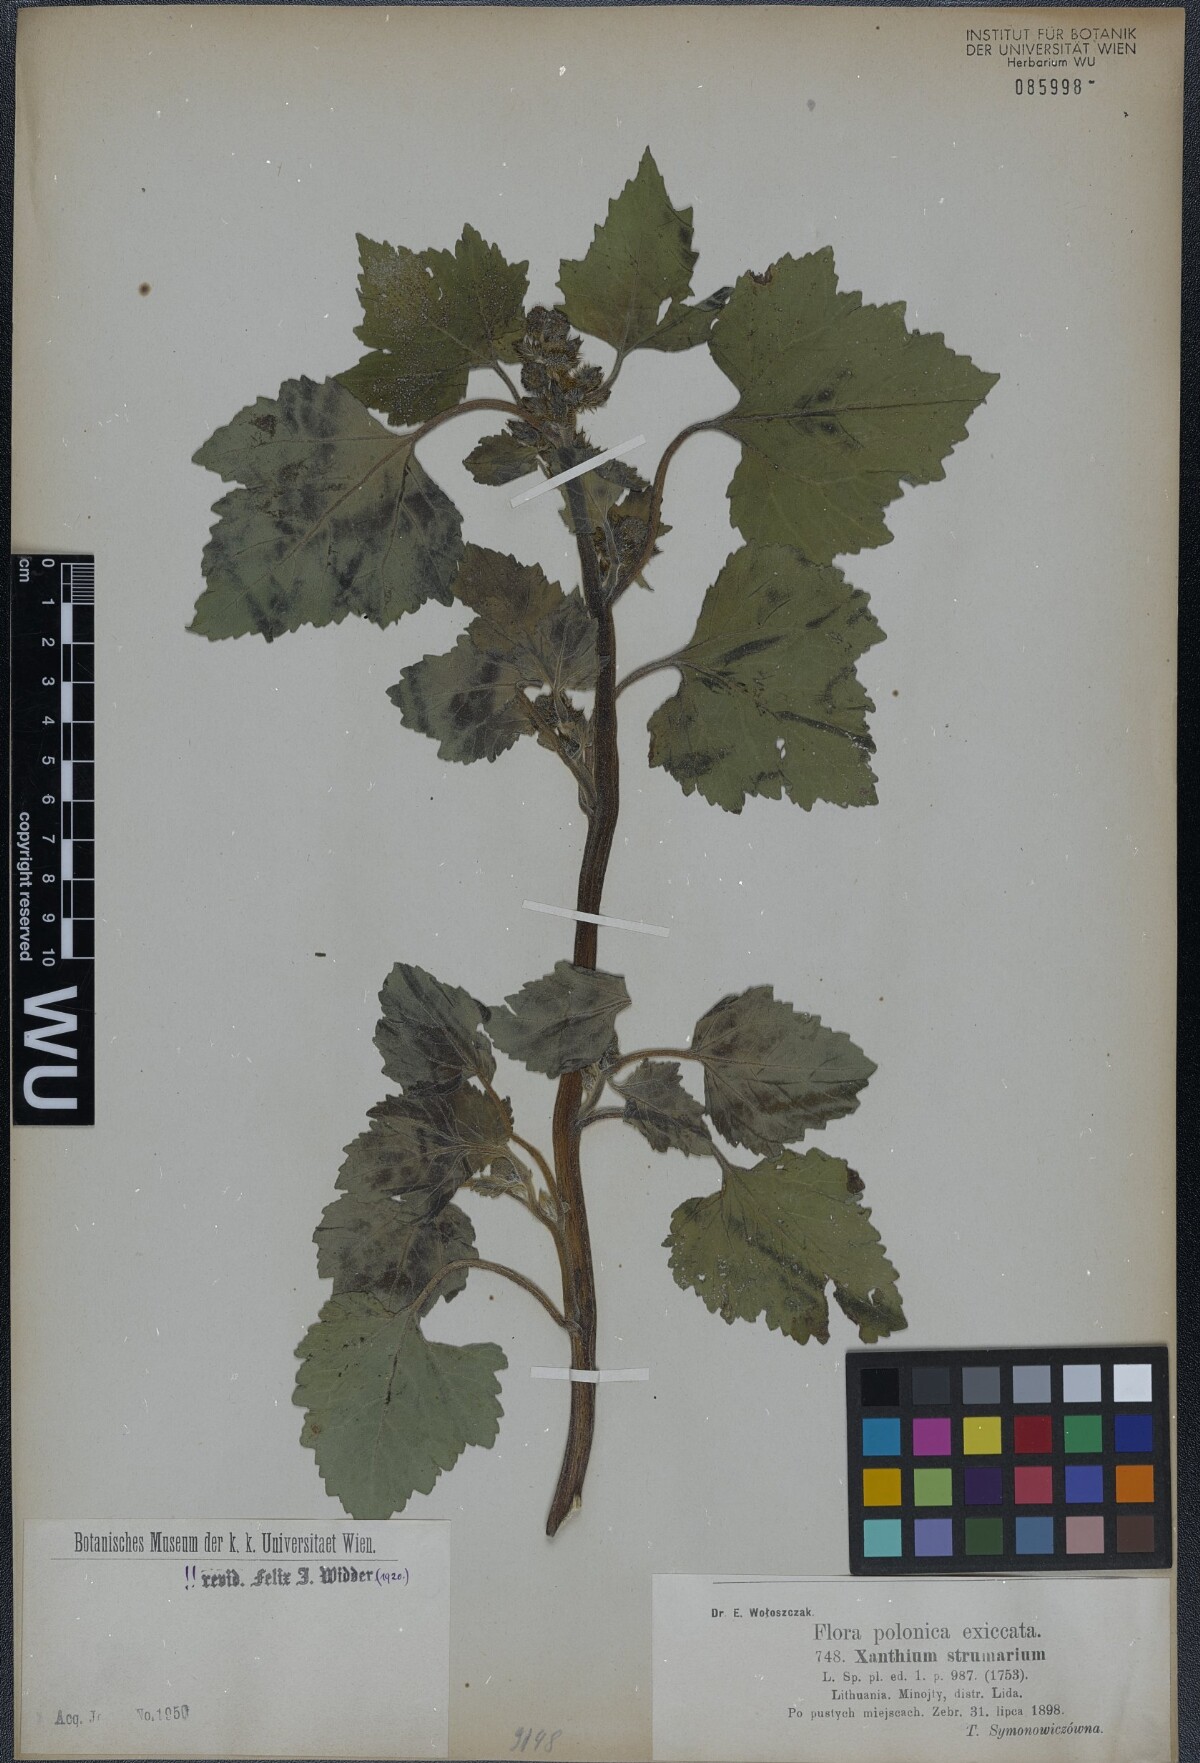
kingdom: Plantae
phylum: Tracheophyta
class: Magnoliopsida
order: Asterales
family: Asteraceae
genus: Xanthium
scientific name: Xanthium strumarium
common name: Rough cocklebur
